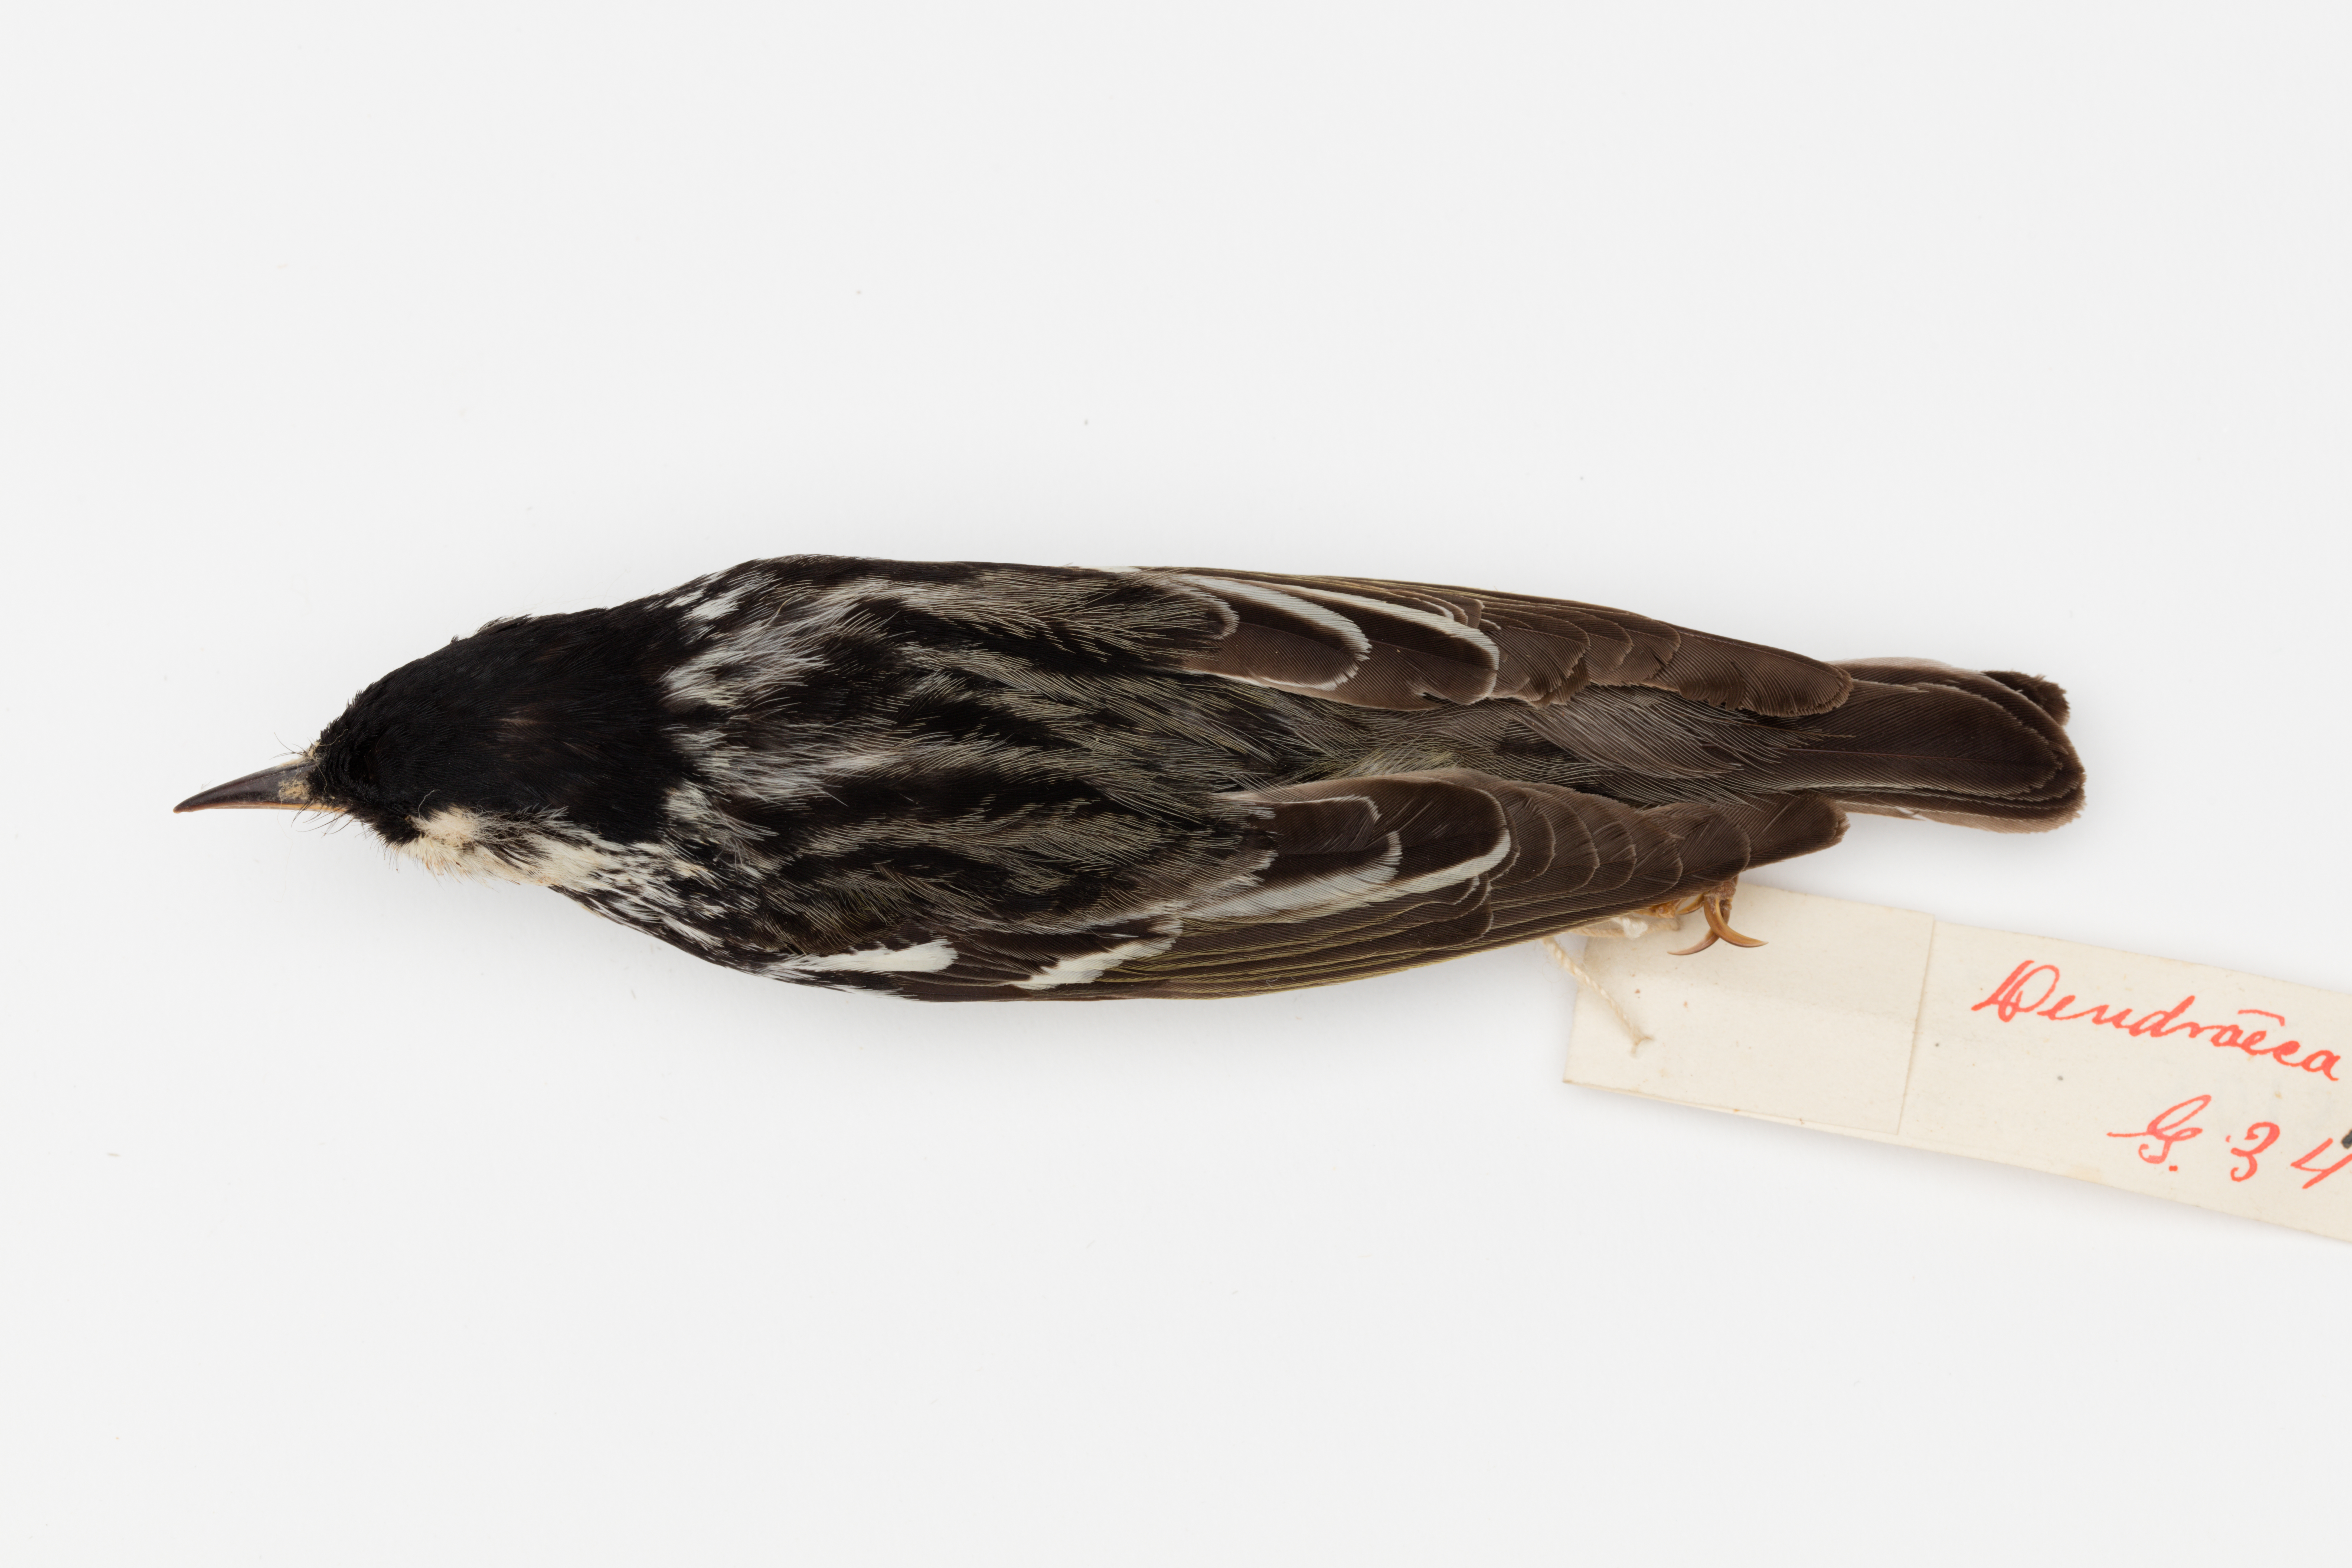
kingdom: Animalia
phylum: Chordata
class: Aves
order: Passeriformes
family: Parulidae
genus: Setophaga
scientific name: Setophaga striata
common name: Blackpoll warbler
